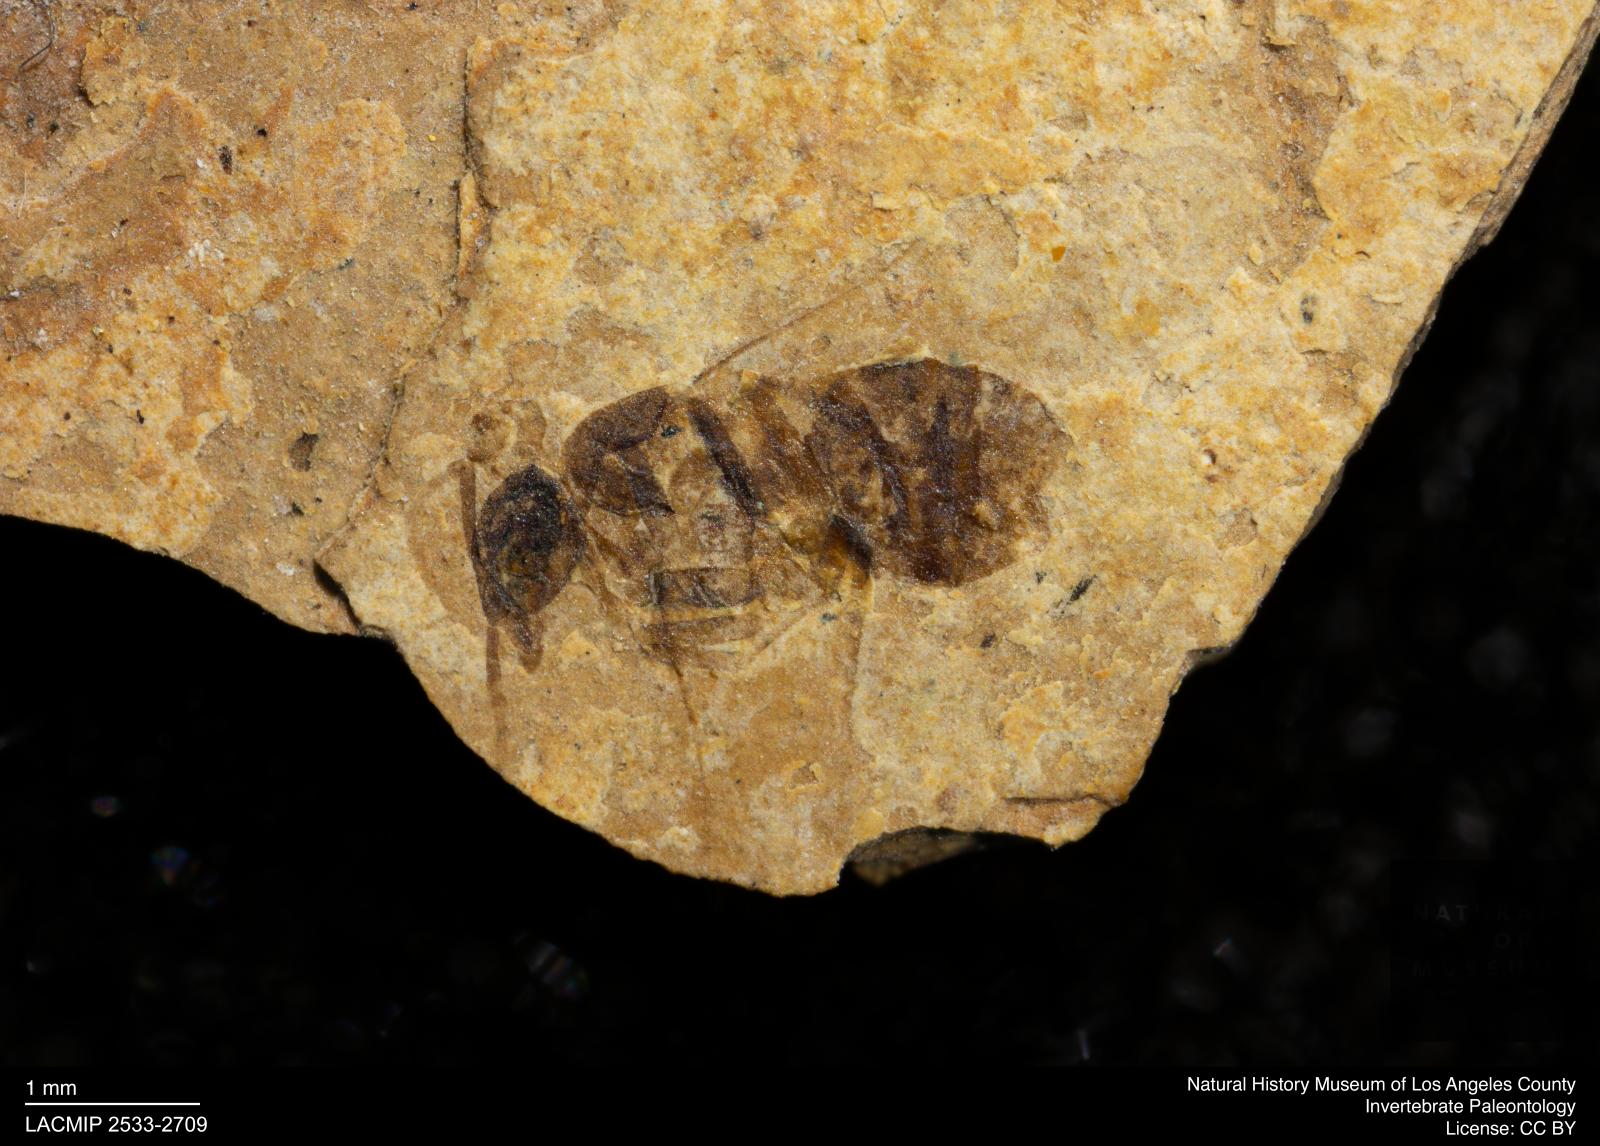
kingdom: Animalia
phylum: Arthropoda
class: Insecta
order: Hymenoptera
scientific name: Hymenoptera
